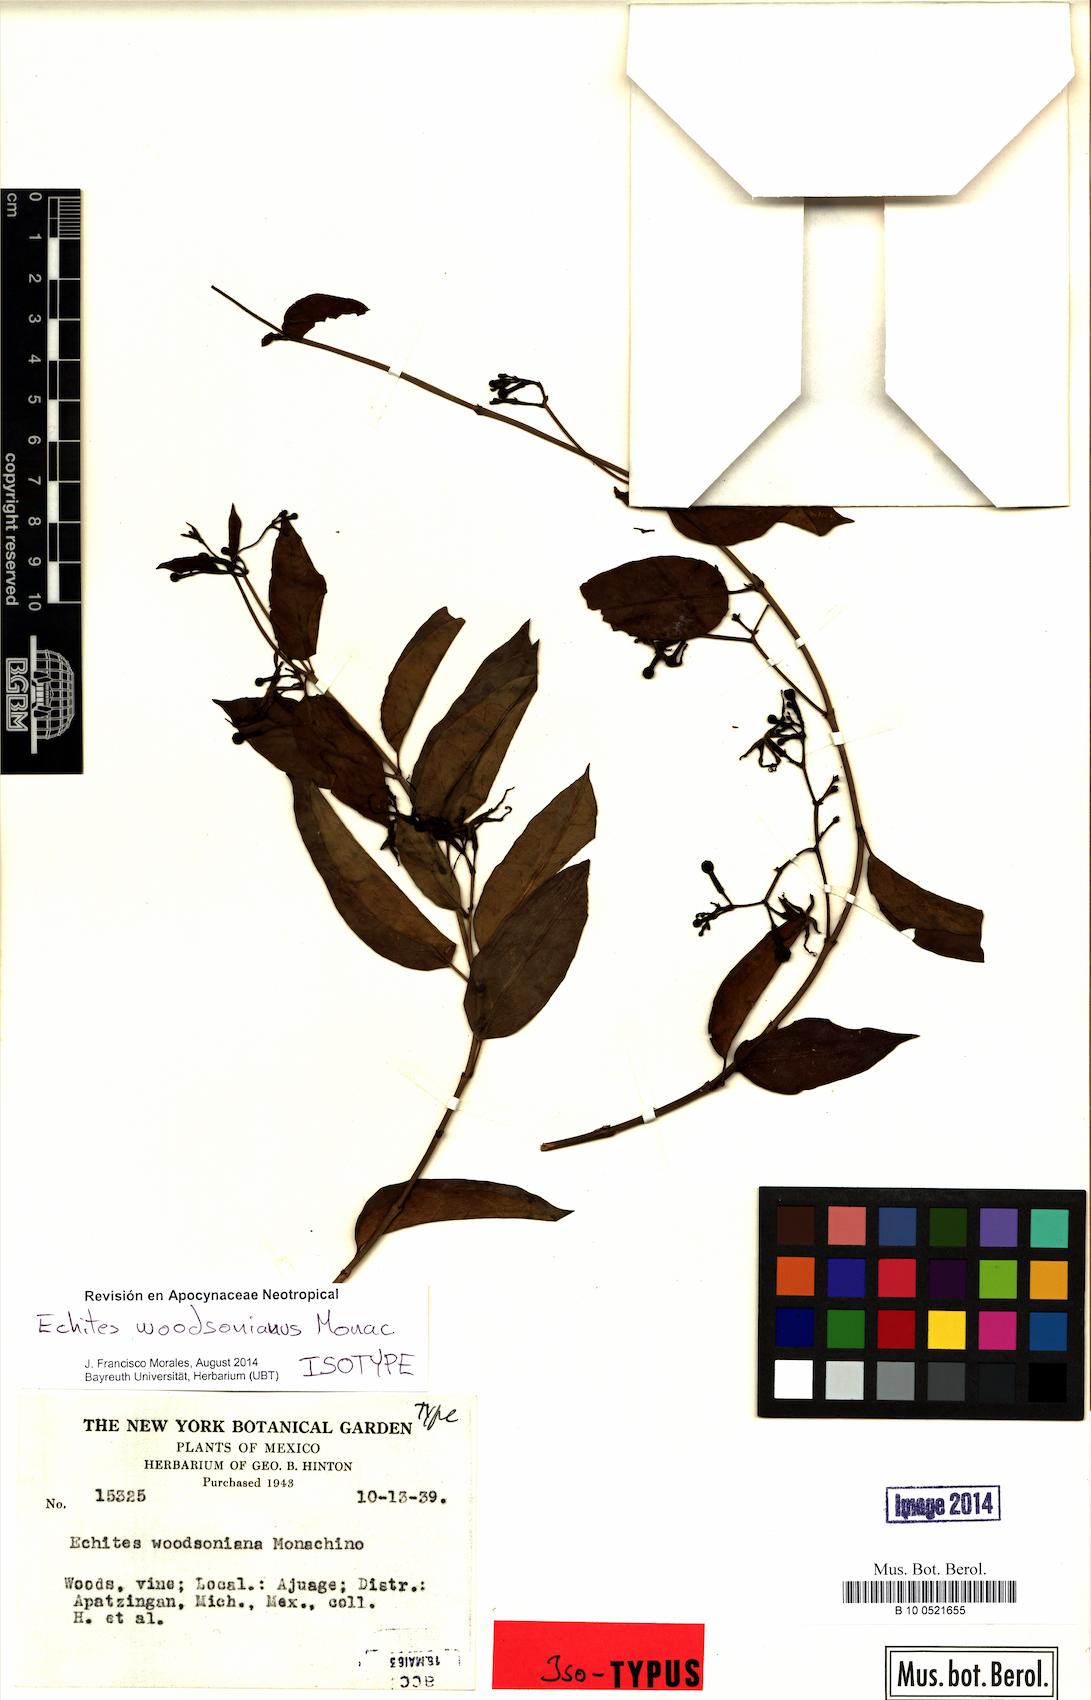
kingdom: Plantae
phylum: Tracheophyta
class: Magnoliopsida
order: Gentianales
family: Apocynaceae
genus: Echites
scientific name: Echites woodsonianus
